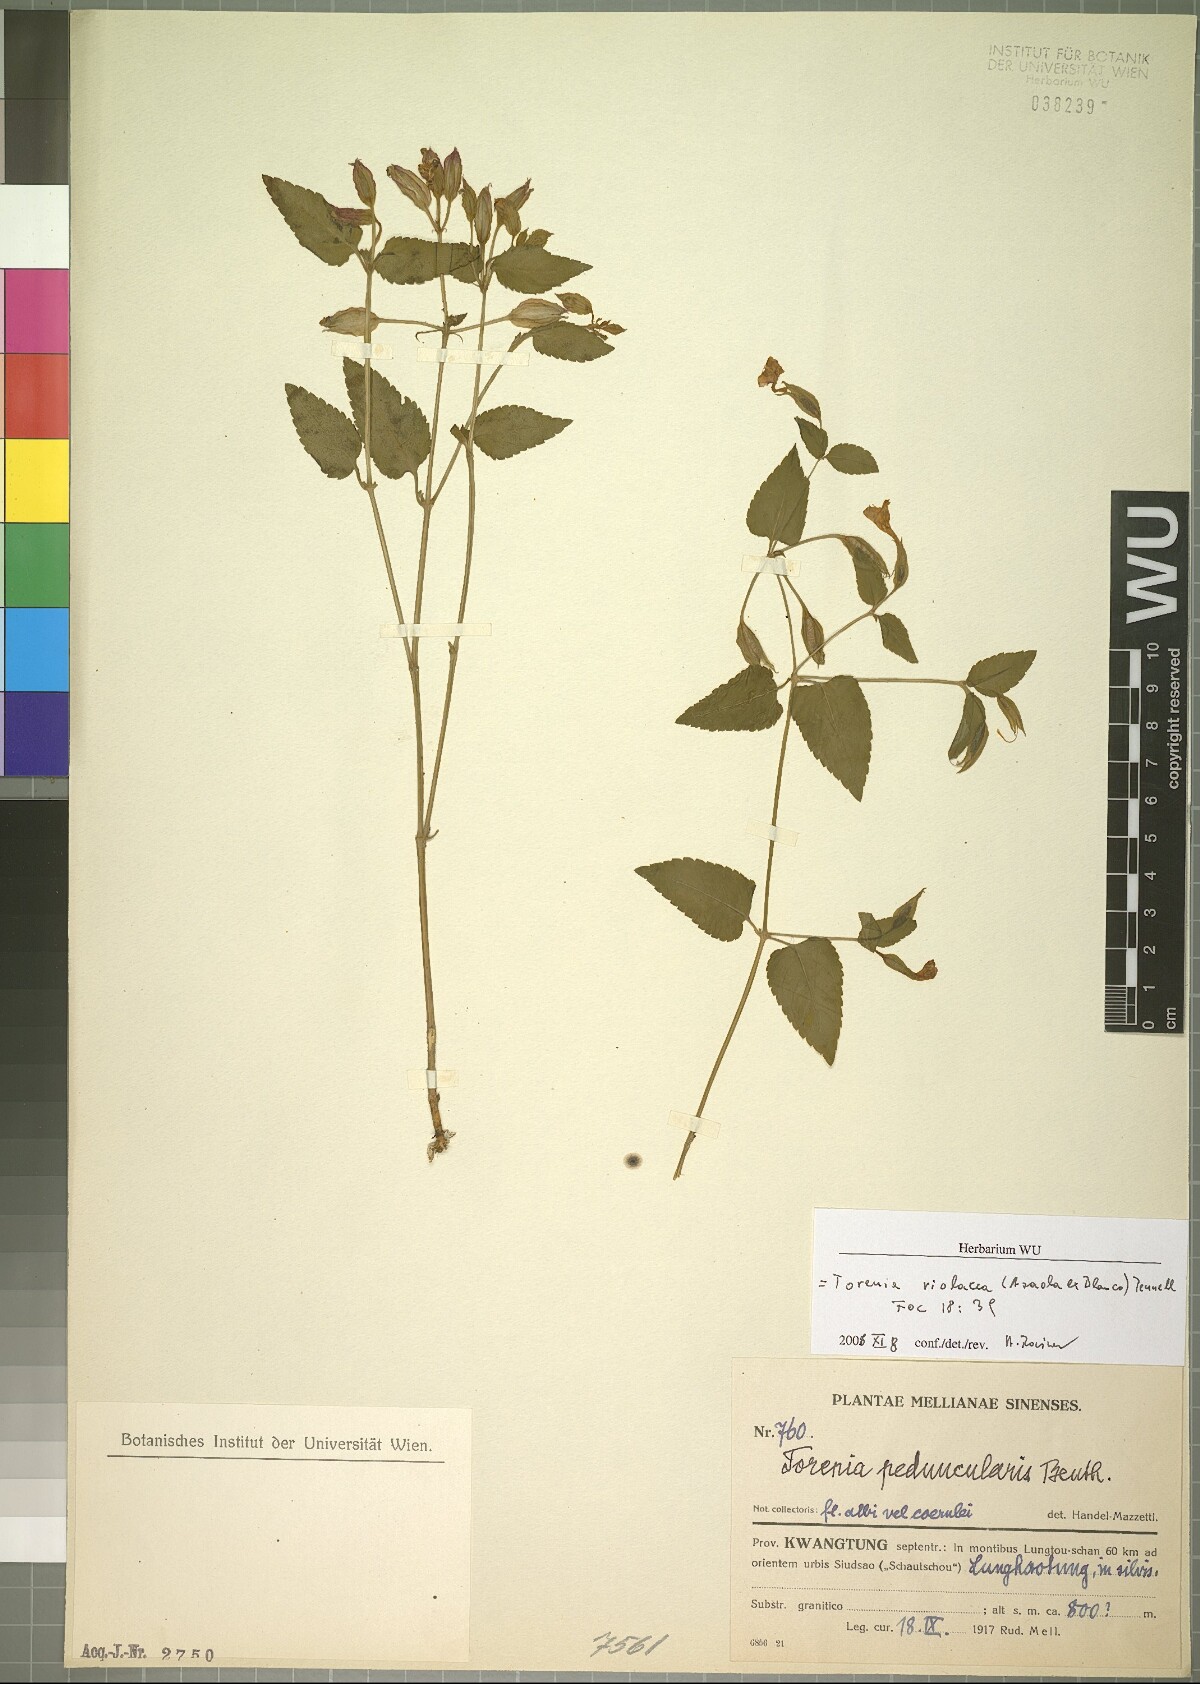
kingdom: Plantae
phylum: Tracheophyta
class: Magnoliopsida
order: Lamiales
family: Linderniaceae
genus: Torenia
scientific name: Torenia violacea
